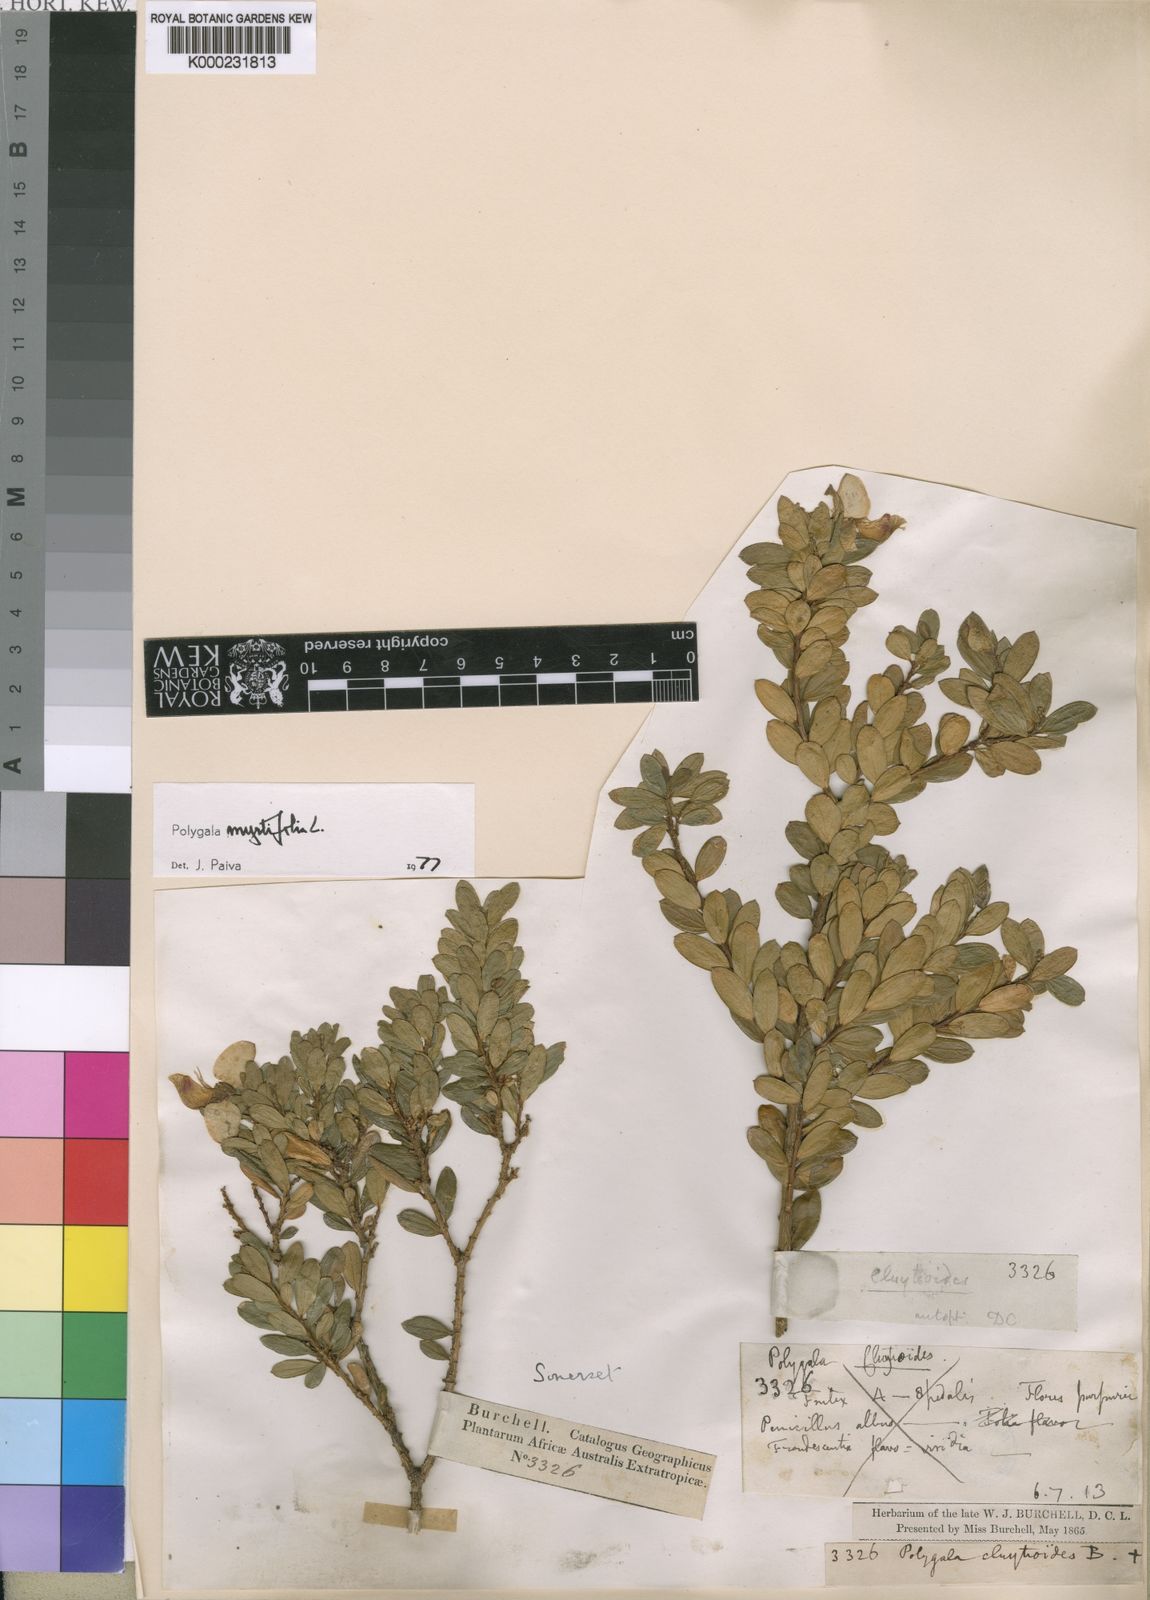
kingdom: Plantae
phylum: Tracheophyta
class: Magnoliopsida
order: Fabales
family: Polygalaceae
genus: Polygala
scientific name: Polygala myrtifolia
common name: Myrtle-leaf milkwort
